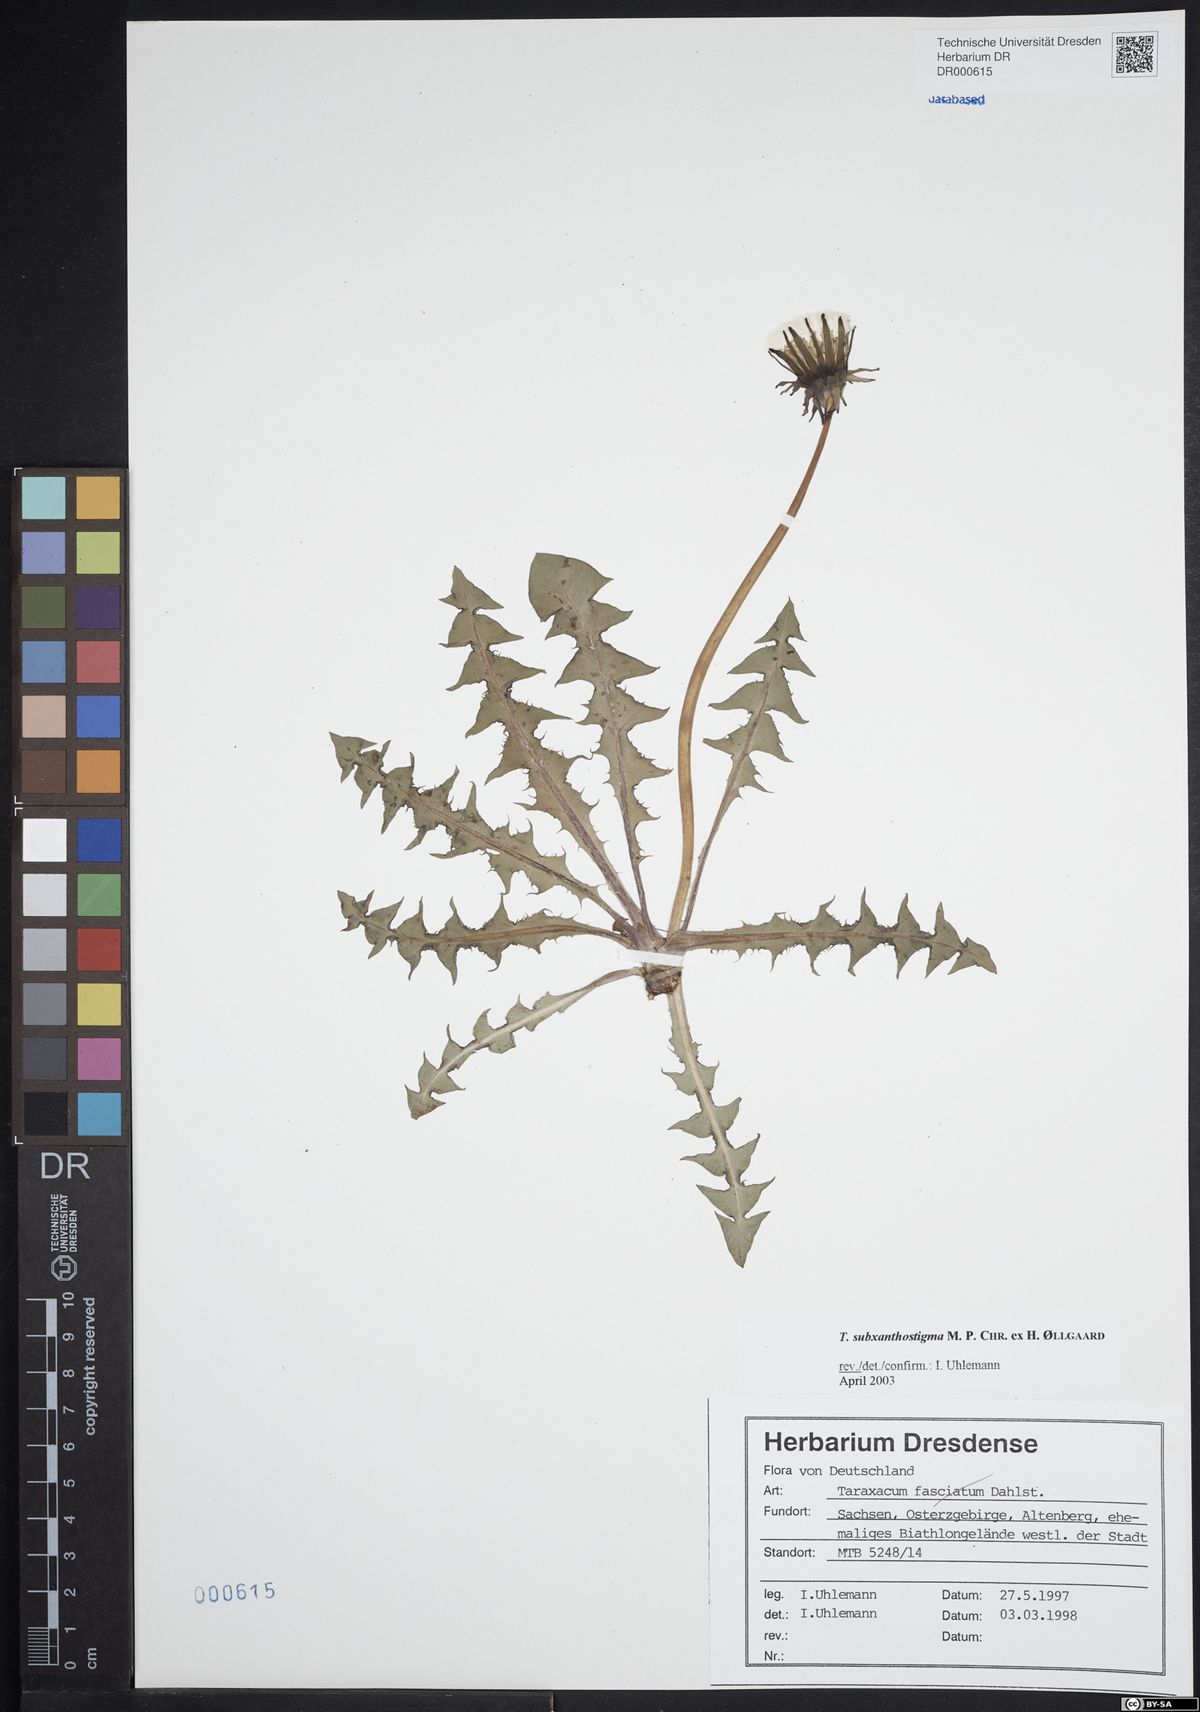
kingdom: Plantae
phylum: Tracheophyta
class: Magnoliopsida
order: Asterales
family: Asteraceae
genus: Taraxacum
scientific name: Taraxacum subxanthostigma
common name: Purple-stalked dandelion
